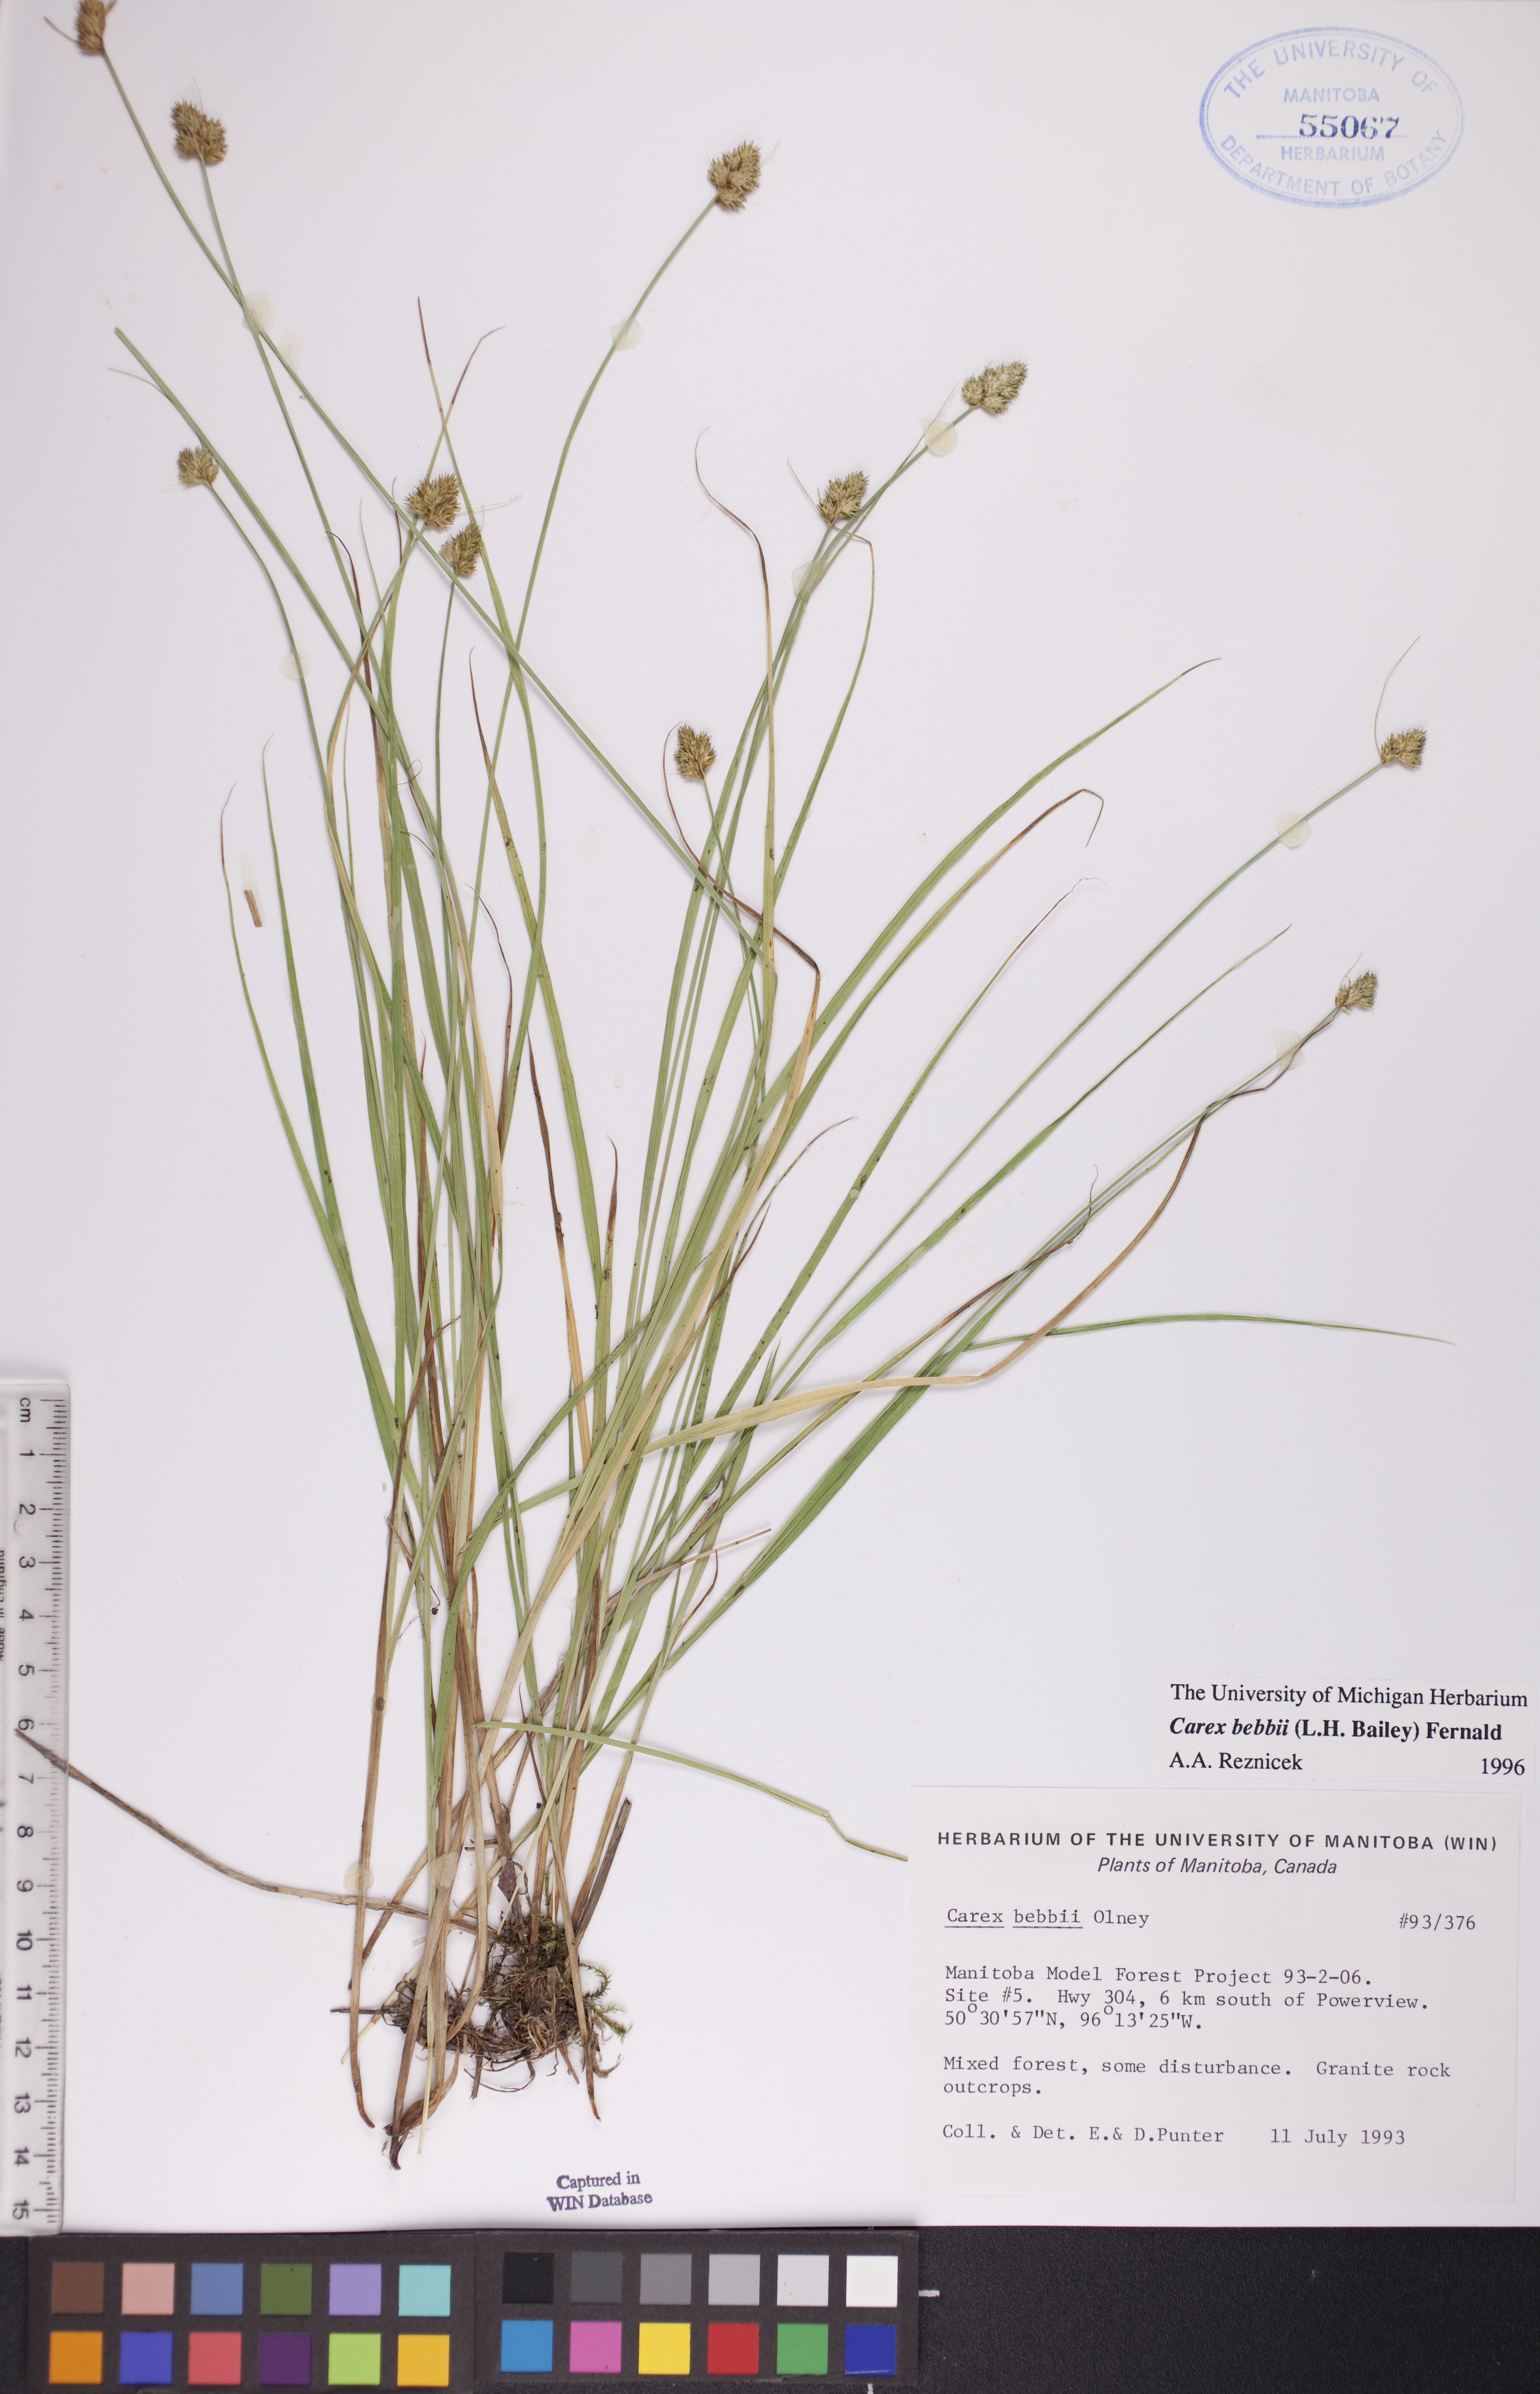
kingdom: Plantae
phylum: Tracheophyta
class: Liliopsida
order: Poales
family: Cyperaceae
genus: Carex
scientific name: Carex bebbii
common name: Bebb's sedge
